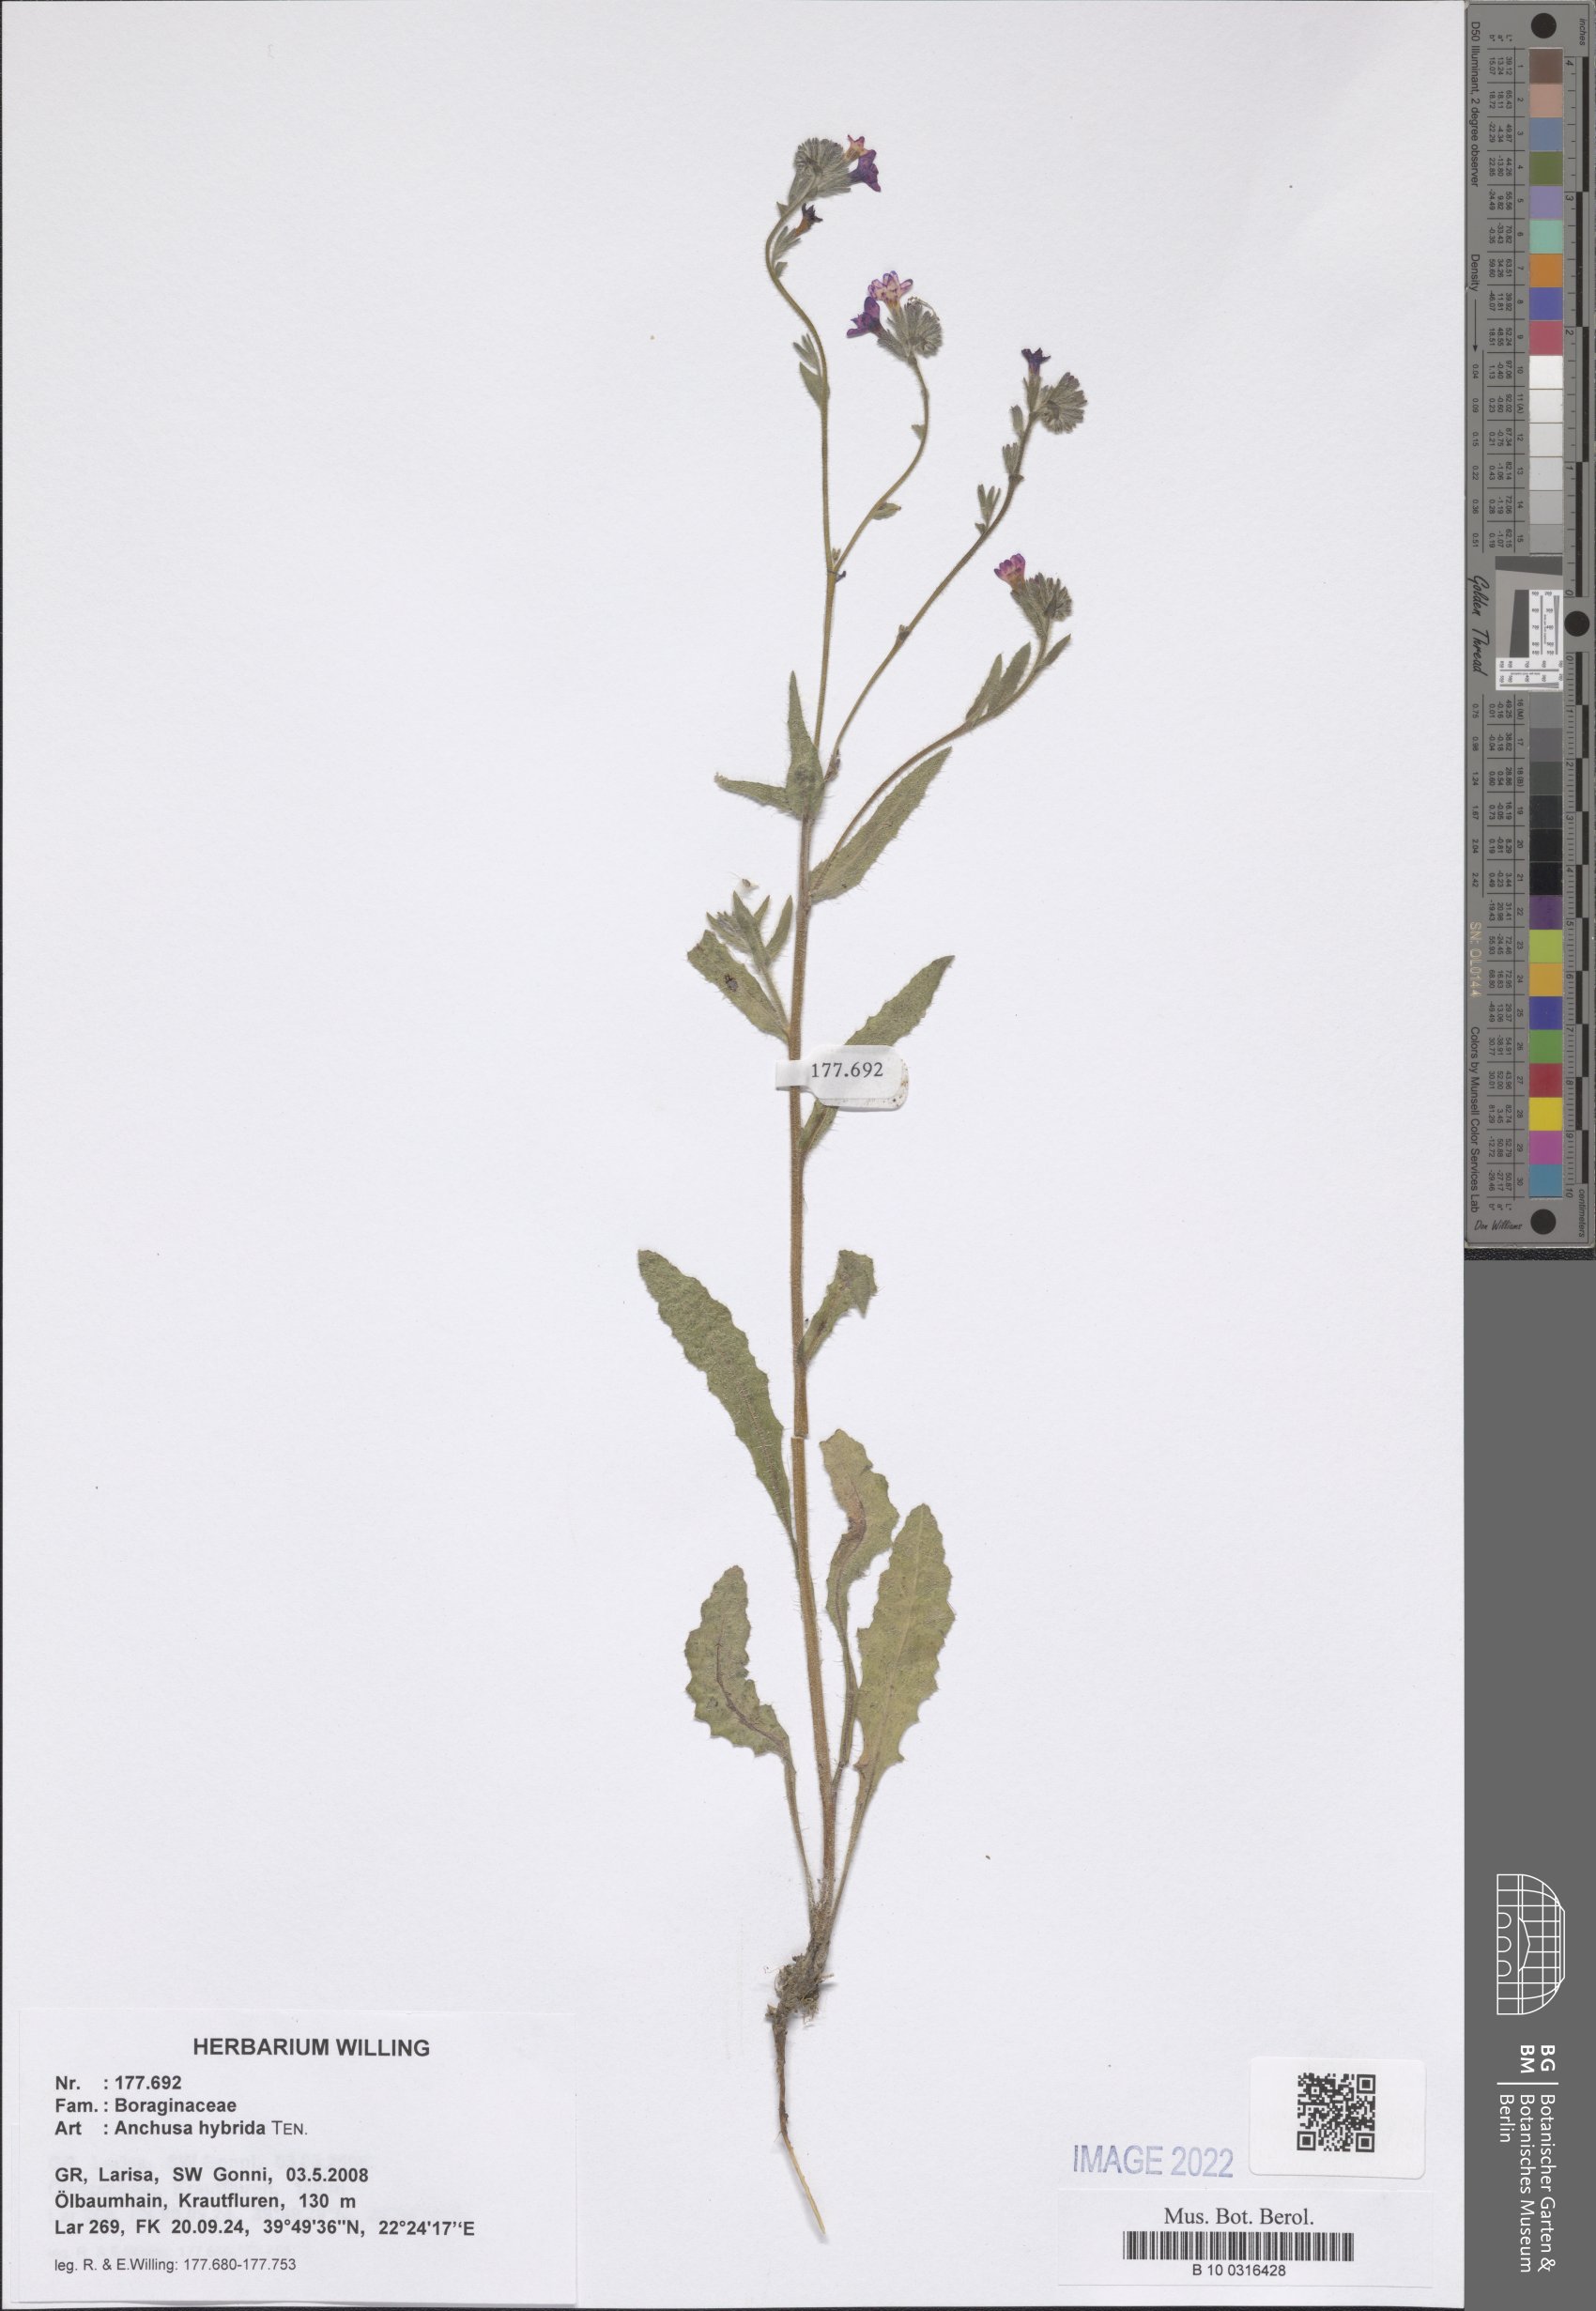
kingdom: Plantae
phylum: Tracheophyta
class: Magnoliopsida
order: Boraginales
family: Boraginaceae
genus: Anchusa
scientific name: Anchusa hybrida
